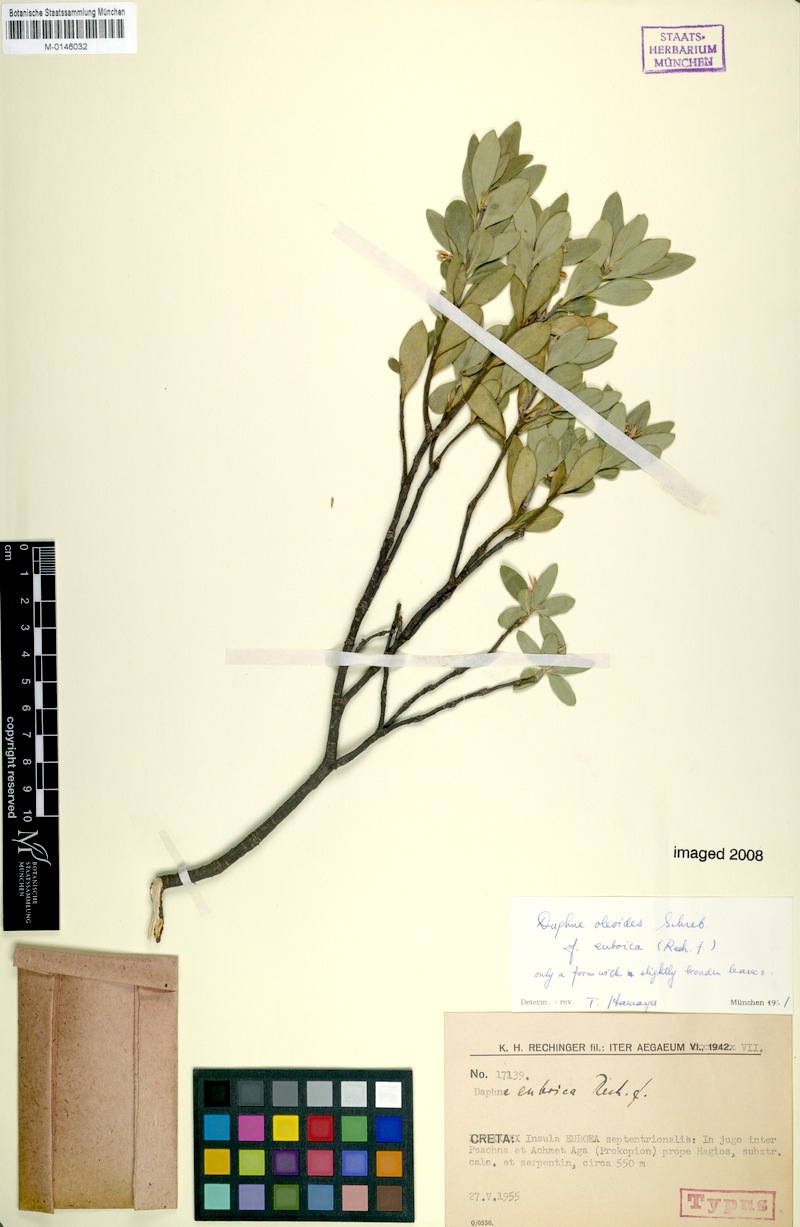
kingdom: Plantae
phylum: Tracheophyta
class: Magnoliopsida
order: Malvales
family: Thymelaeaceae
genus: Daphne
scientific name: Daphne oleoides
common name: Spurge-olive
